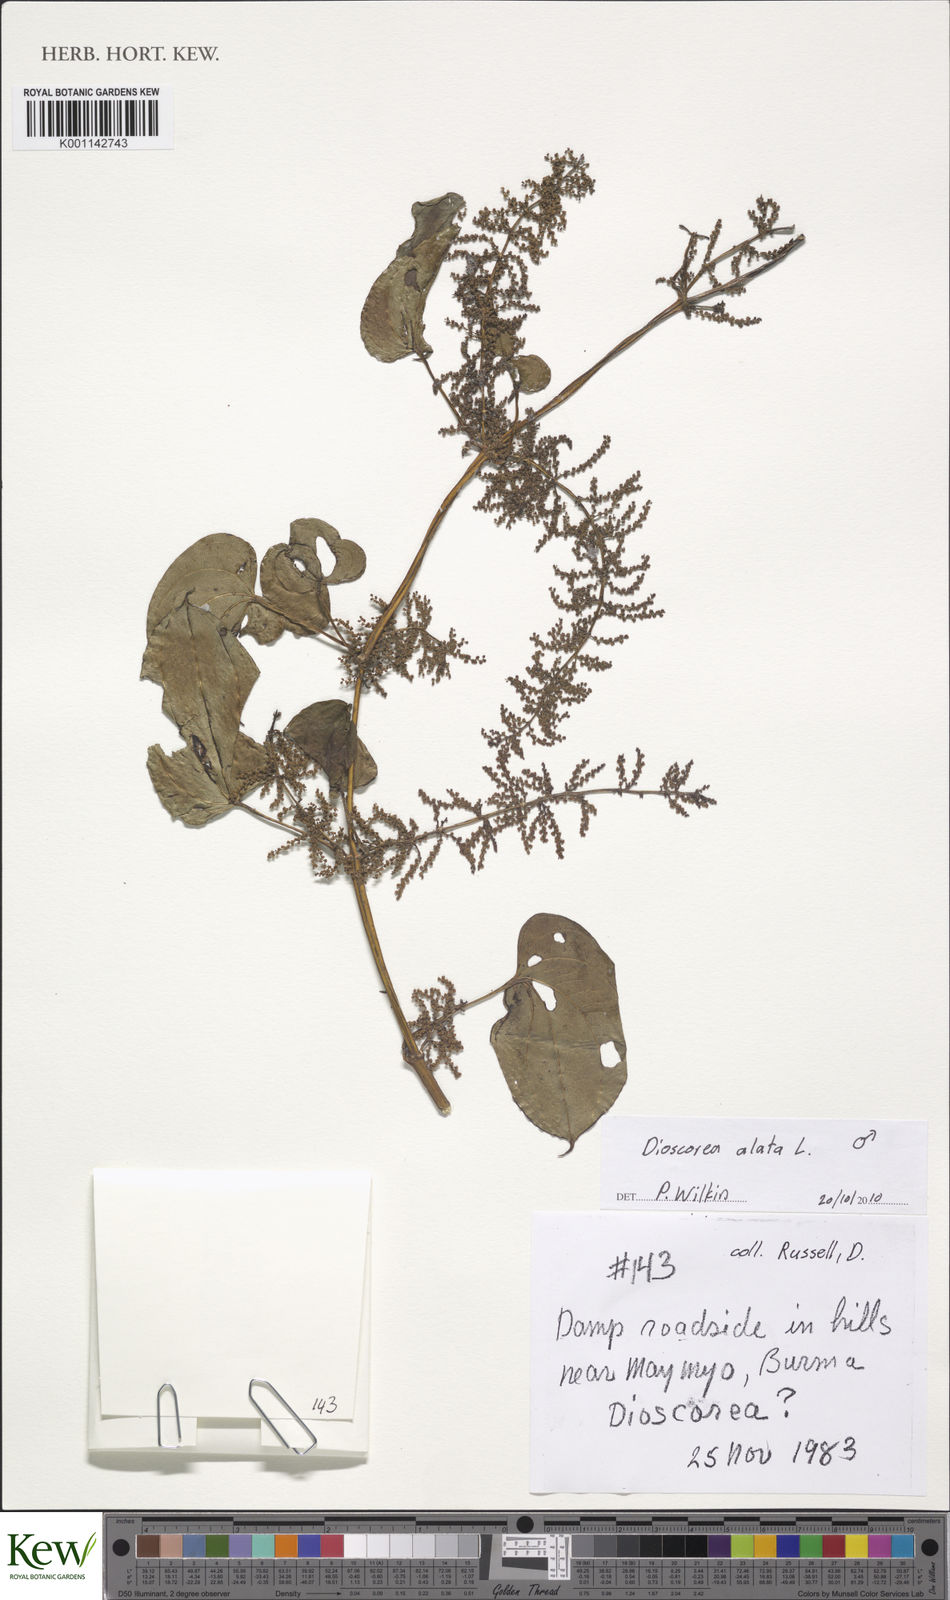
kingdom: Plantae
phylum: Tracheophyta
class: Liliopsida
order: Dioscoreales
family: Dioscoreaceae
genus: Dioscorea
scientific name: Dioscorea alata
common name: Water yam
